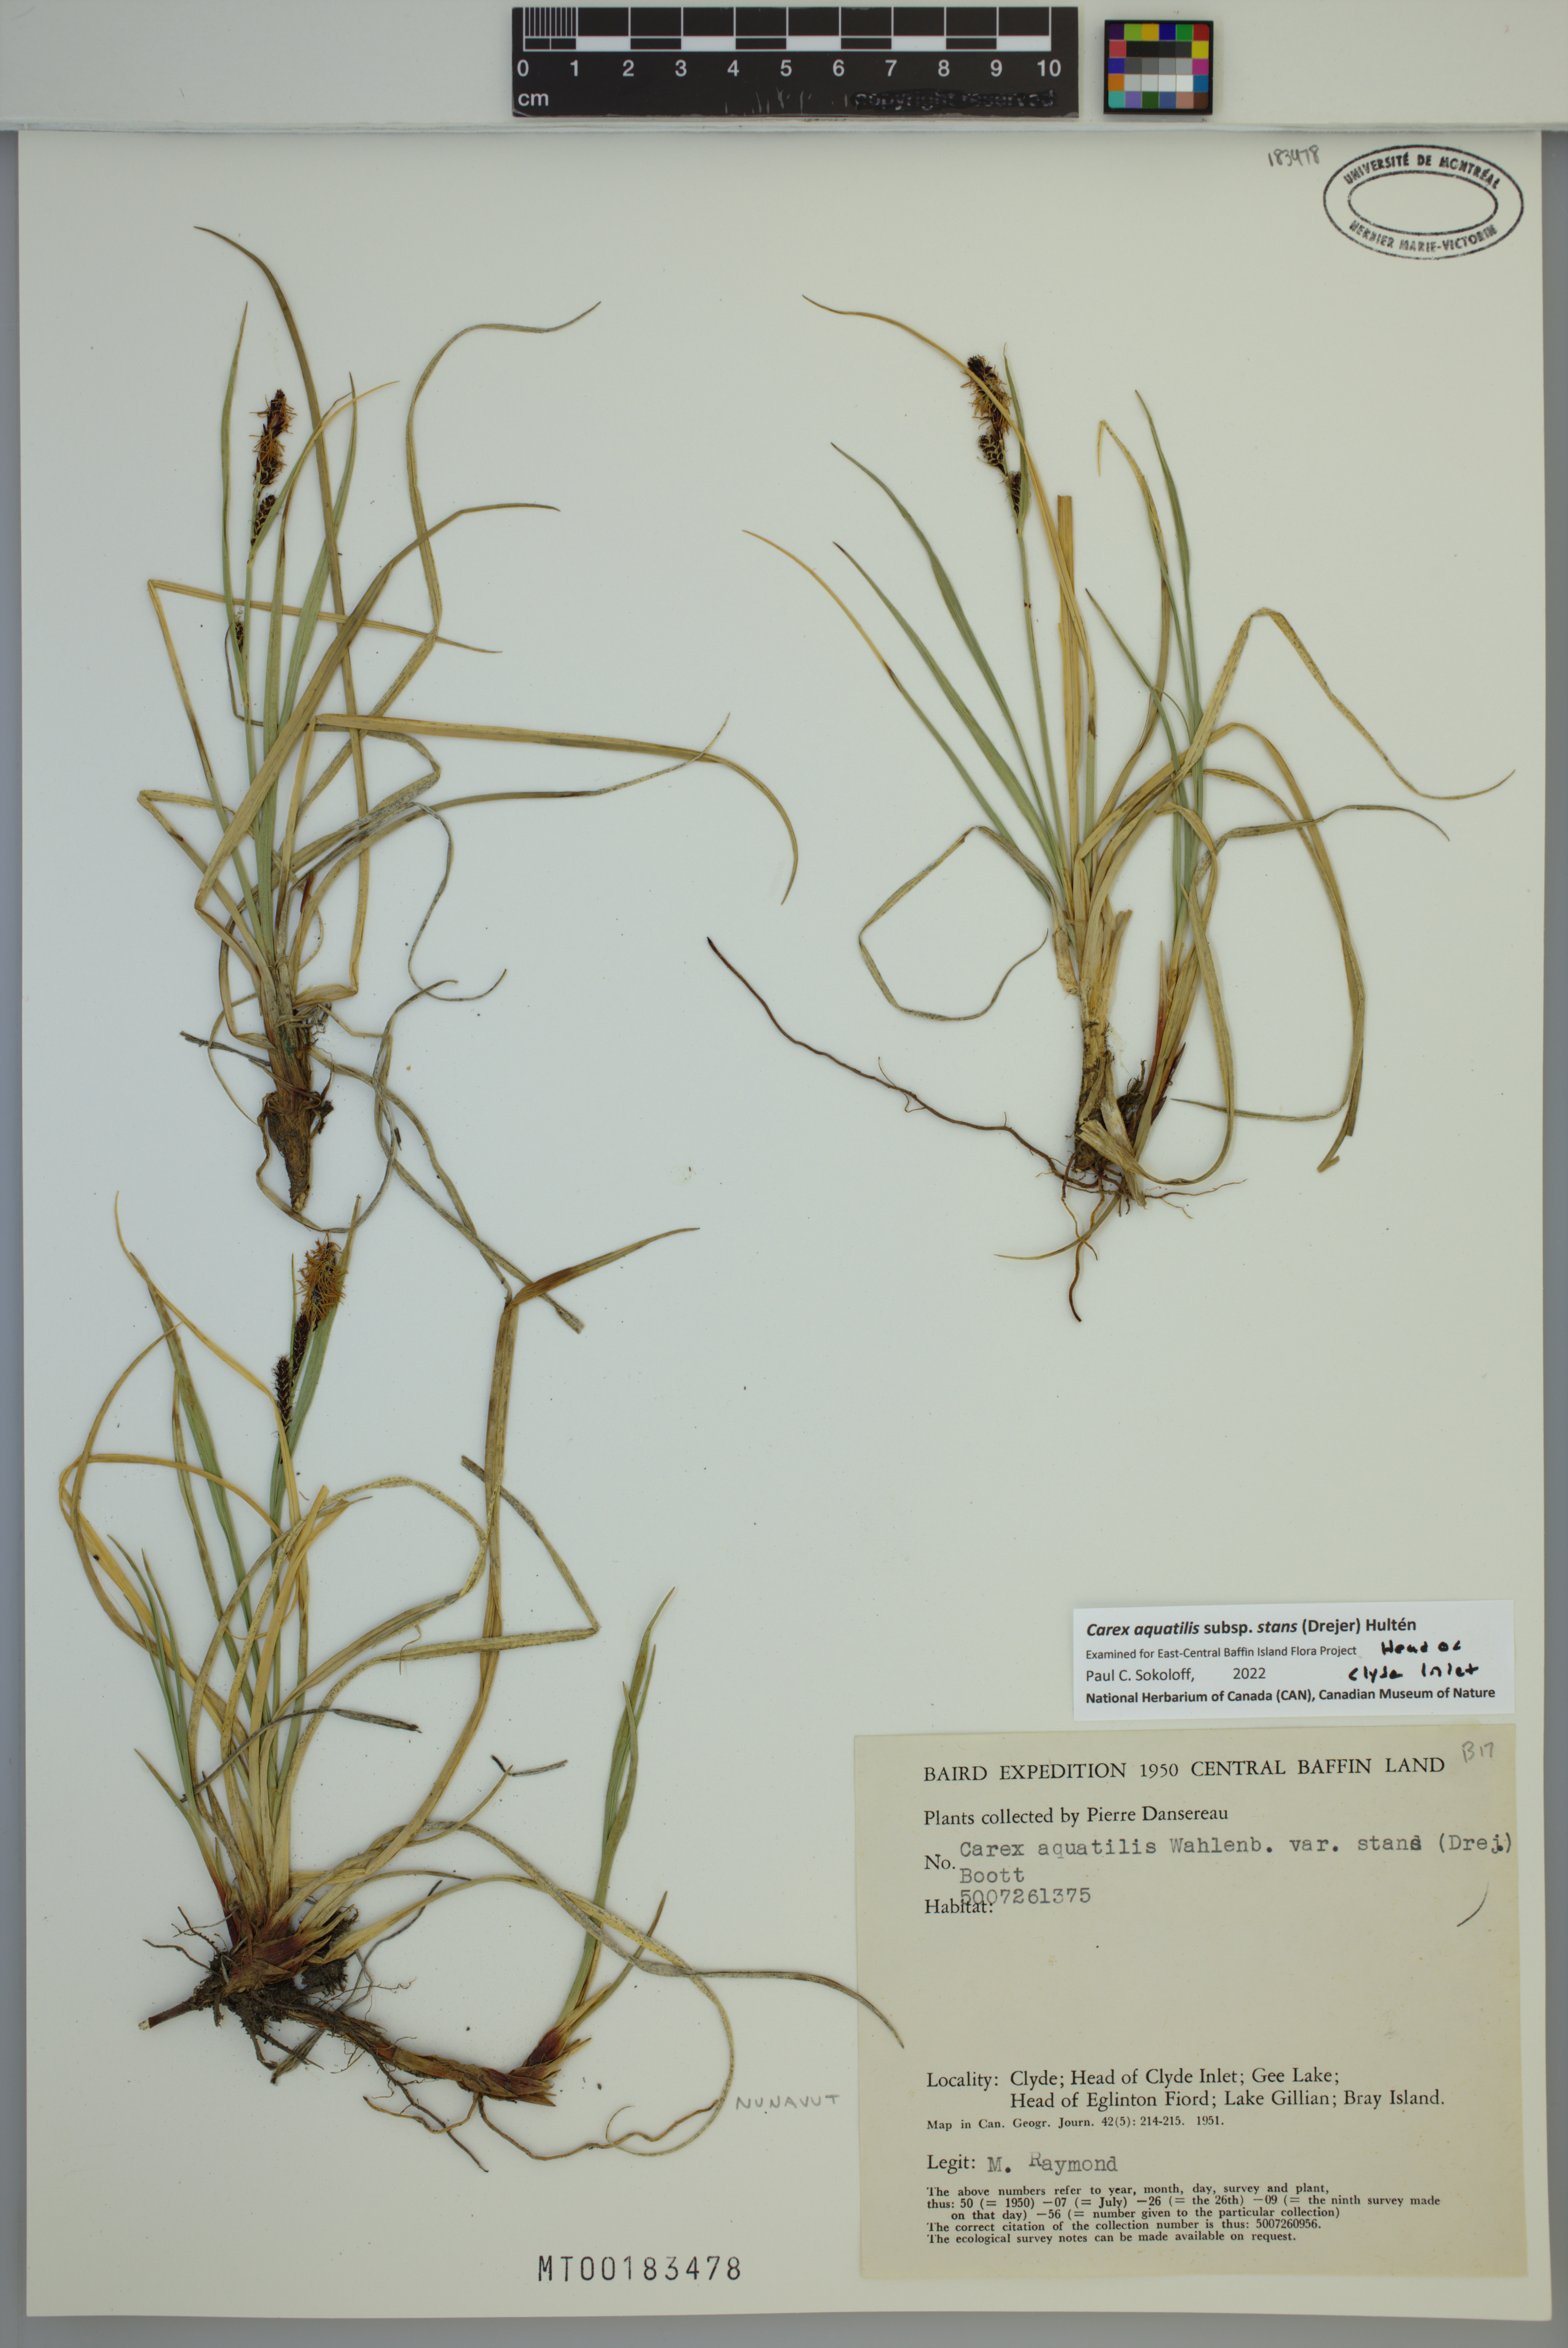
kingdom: Plantae
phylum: Tracheophyta
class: Liliopsida
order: Poales
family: Cyperaceae
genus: Carex
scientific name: Carex aquatilis
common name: Water sedge
